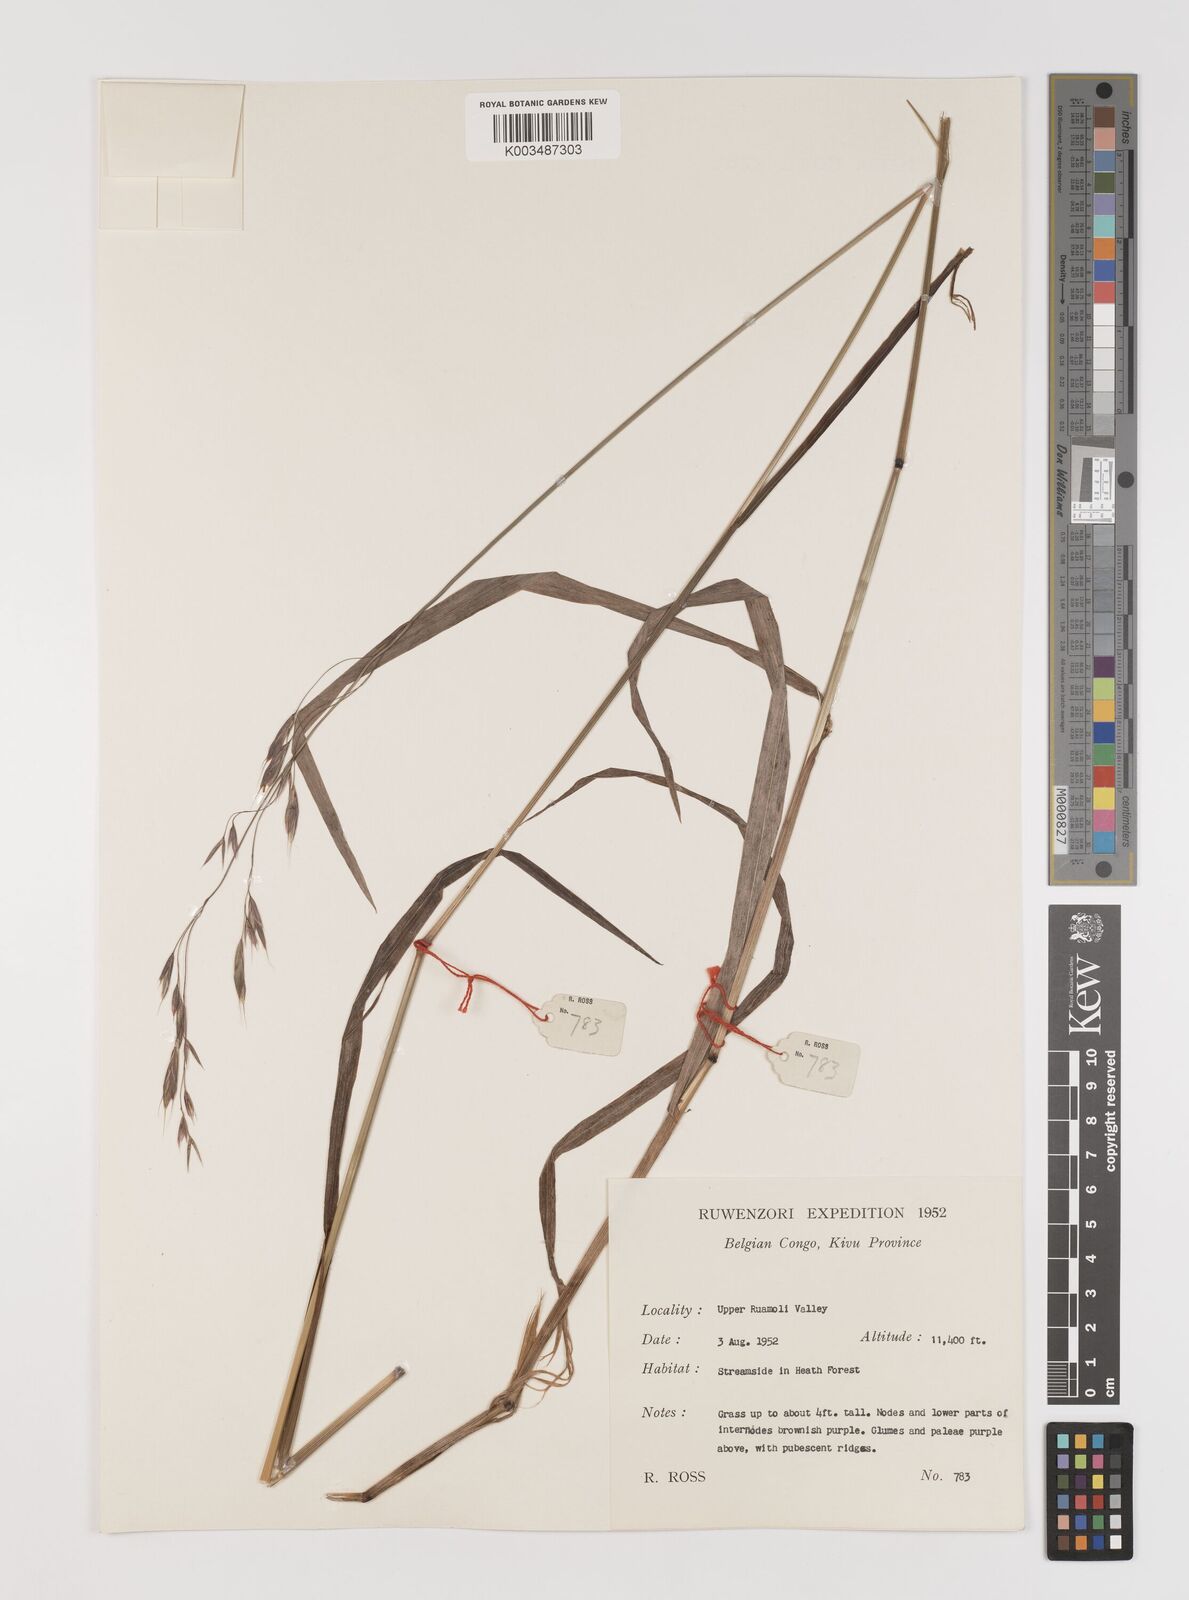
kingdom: Plantae
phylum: Tracheophyta
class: Liliopsida
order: Poales
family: Poaceae
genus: Bromus
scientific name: Bromus leptoclados
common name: Mountain bromegrass
